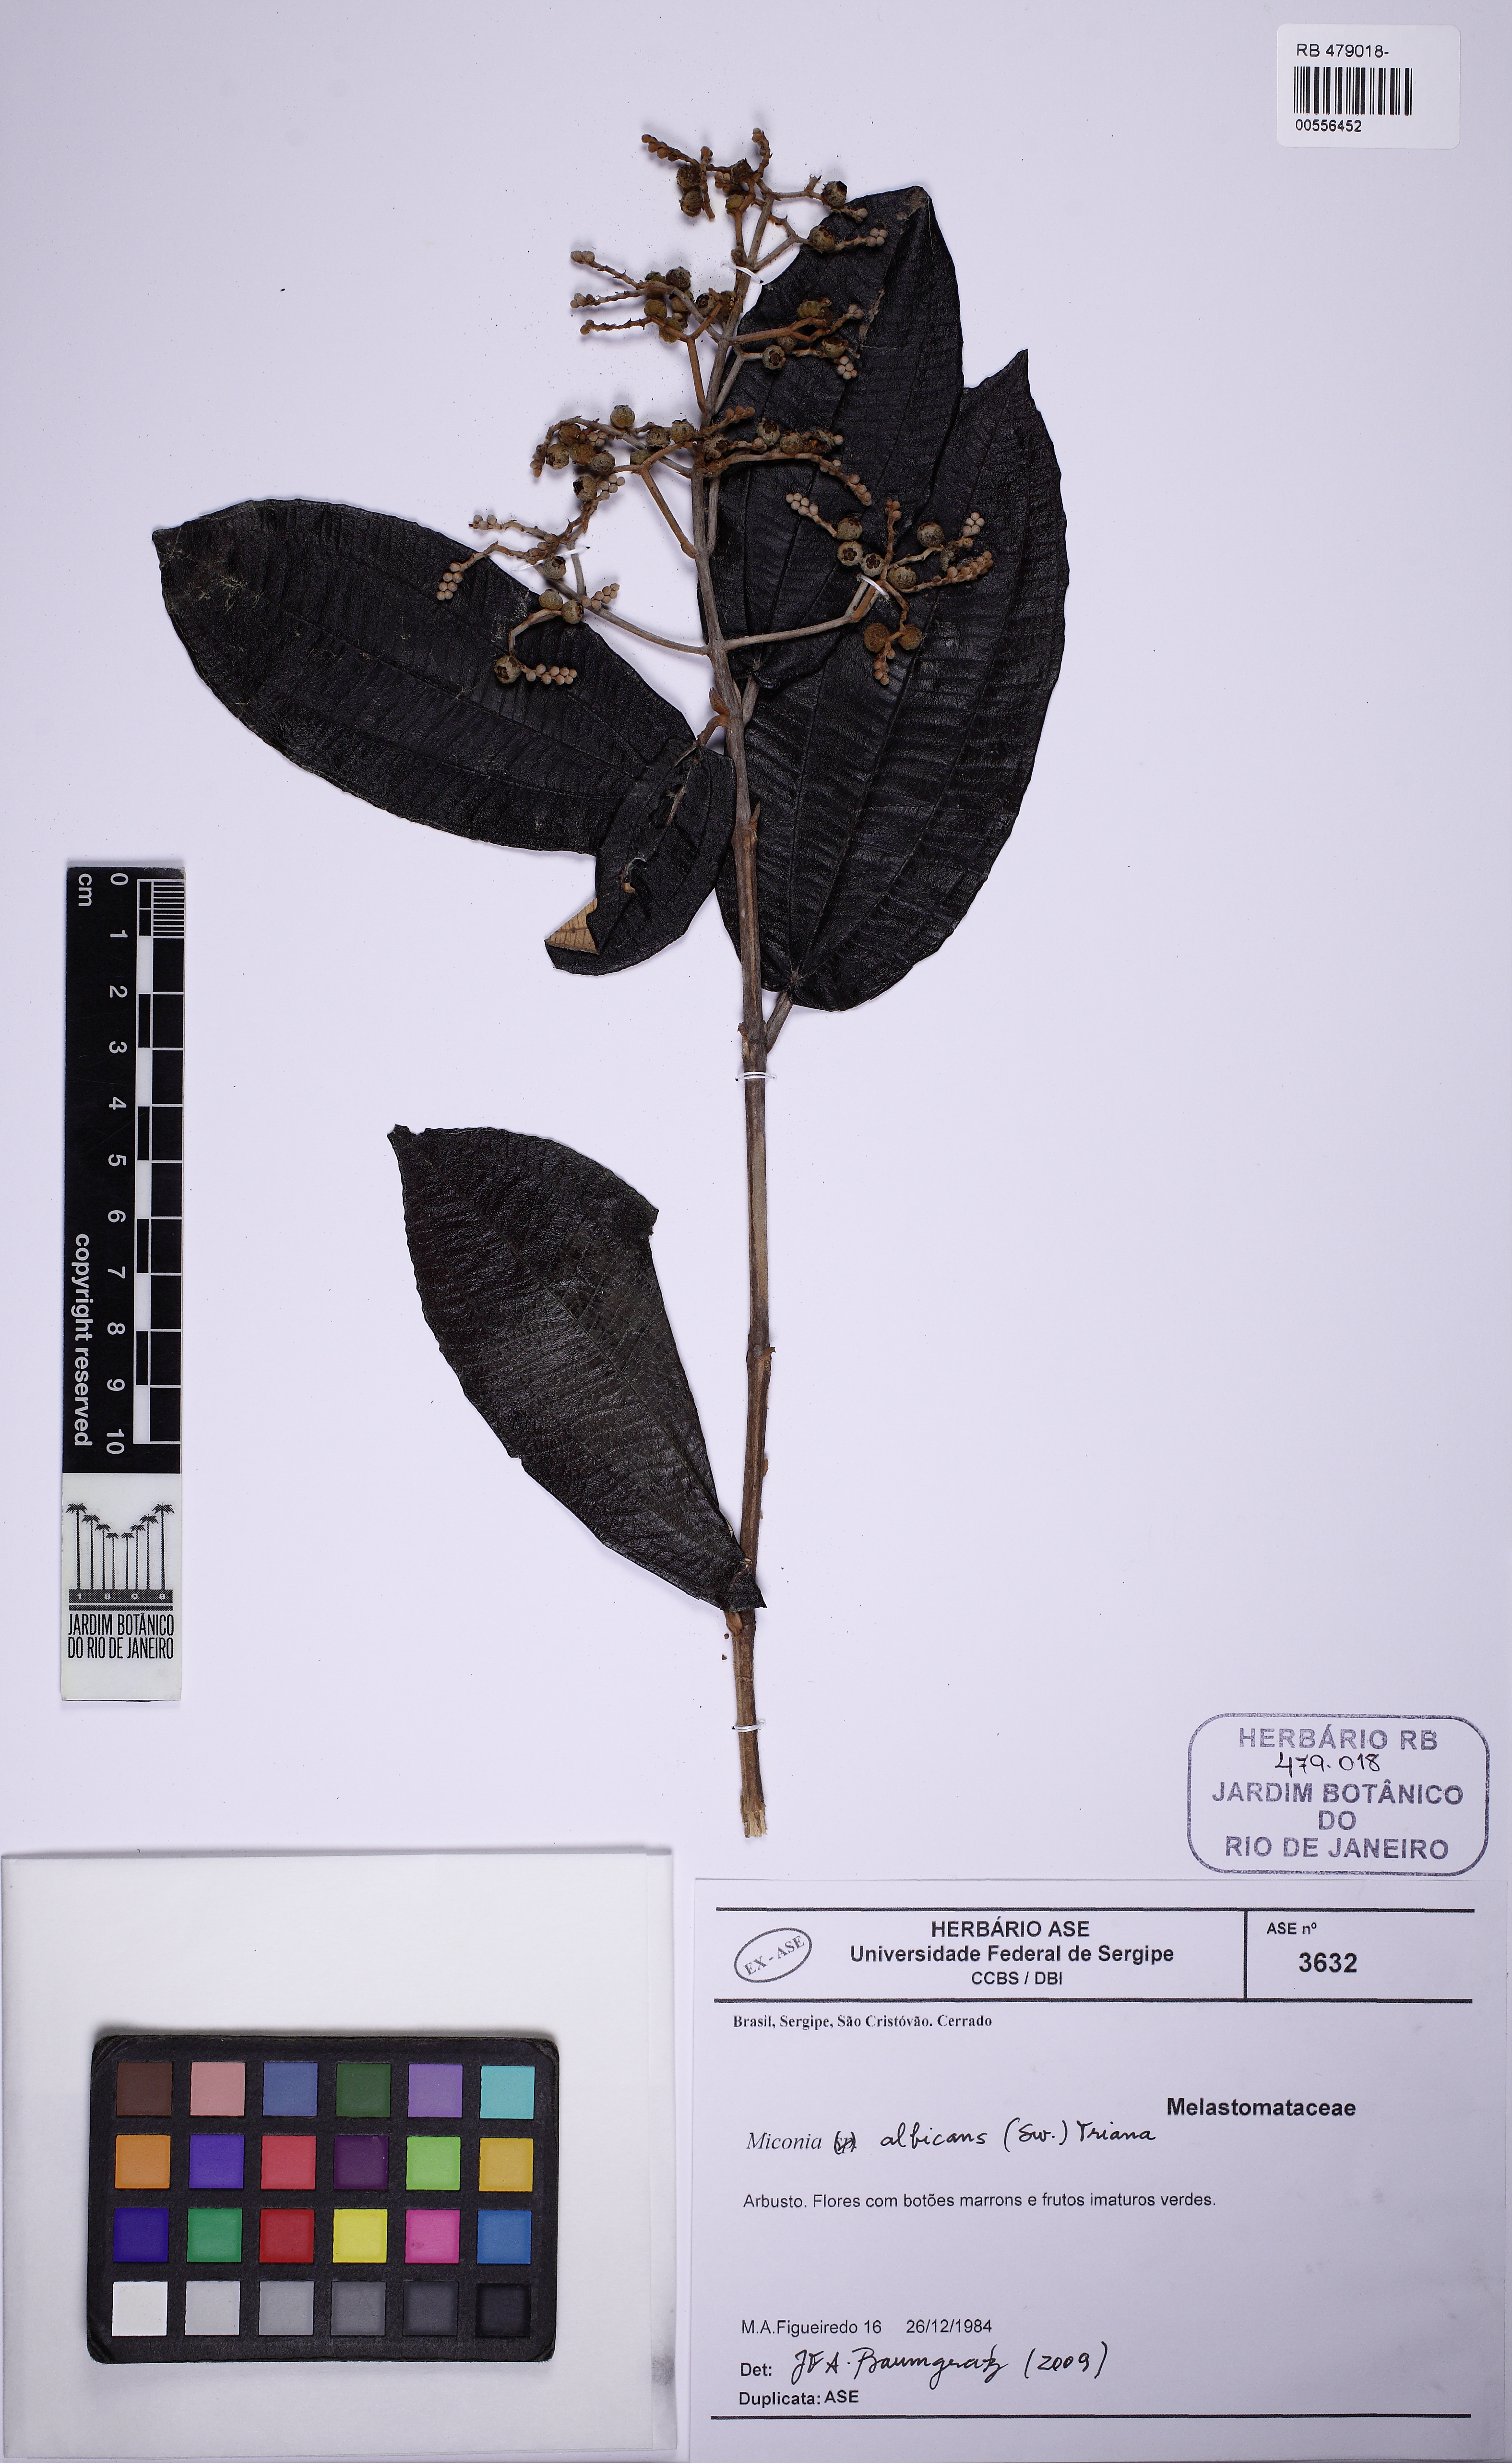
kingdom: Plantae
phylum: Tracheophyta
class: Magnoliopsida
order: Myrtales
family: Melastomataceae
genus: Miconia
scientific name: Miconia albicans
